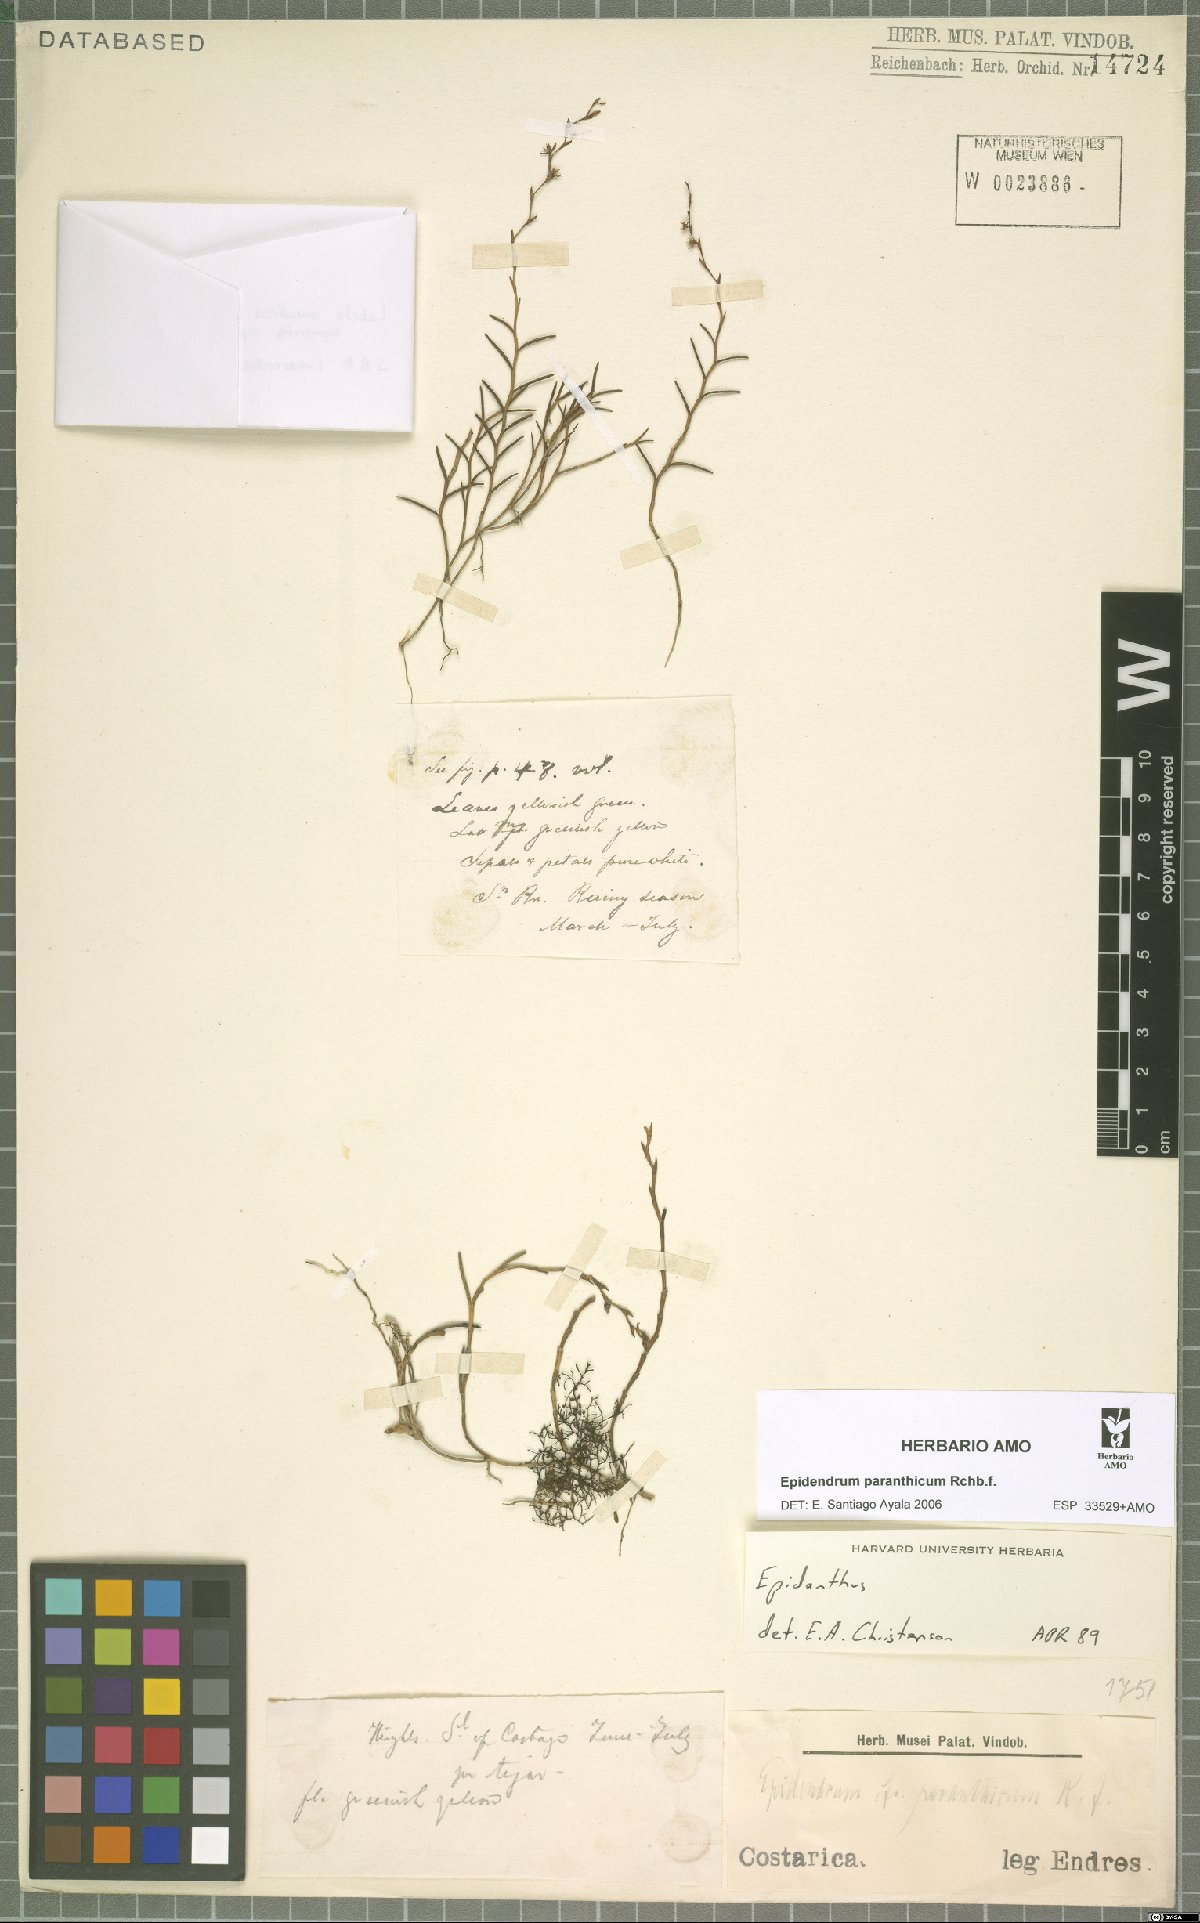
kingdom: Plantae
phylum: Tracheophyta
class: Liliopsida
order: Asparagales
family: Orchidaceae
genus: Epidendrum
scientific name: Epidendrum paranthicum
